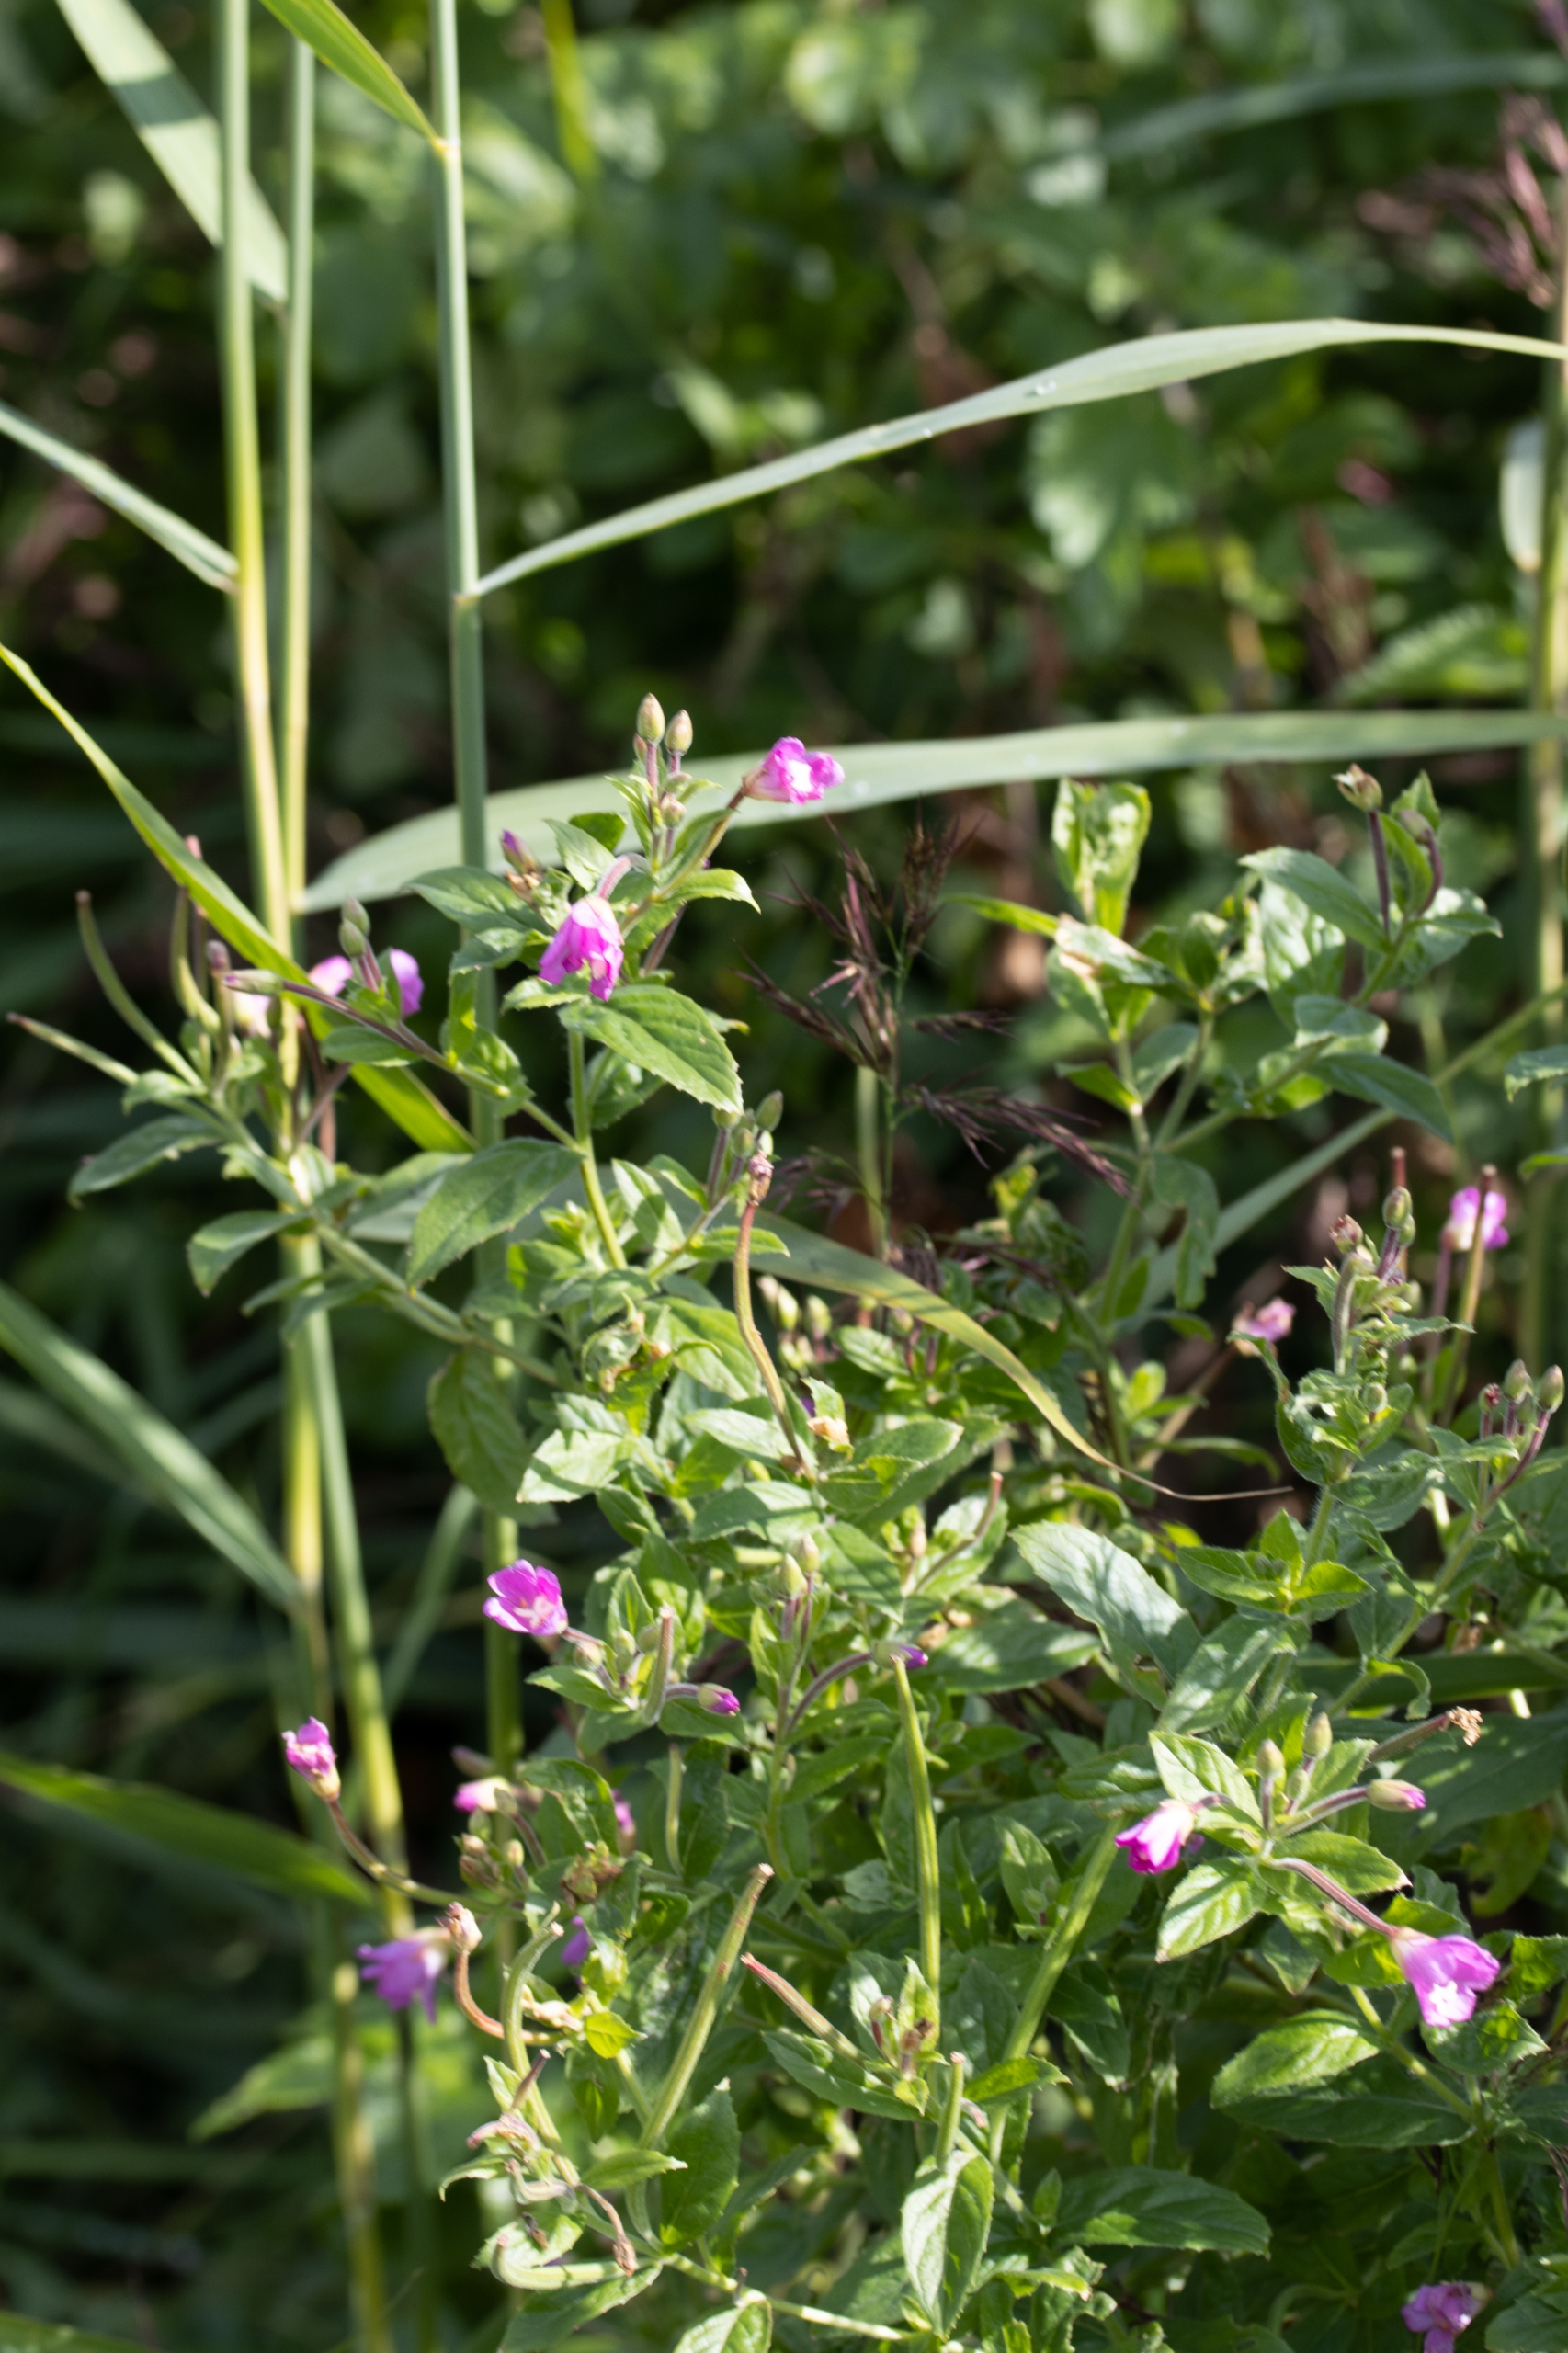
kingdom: Plantae
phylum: Tracheophyta
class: Magnoliopsida
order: Myrtales
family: Onagraceae
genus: Epilobium
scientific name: Epilobium hirsutum
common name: Lådden dueurt
